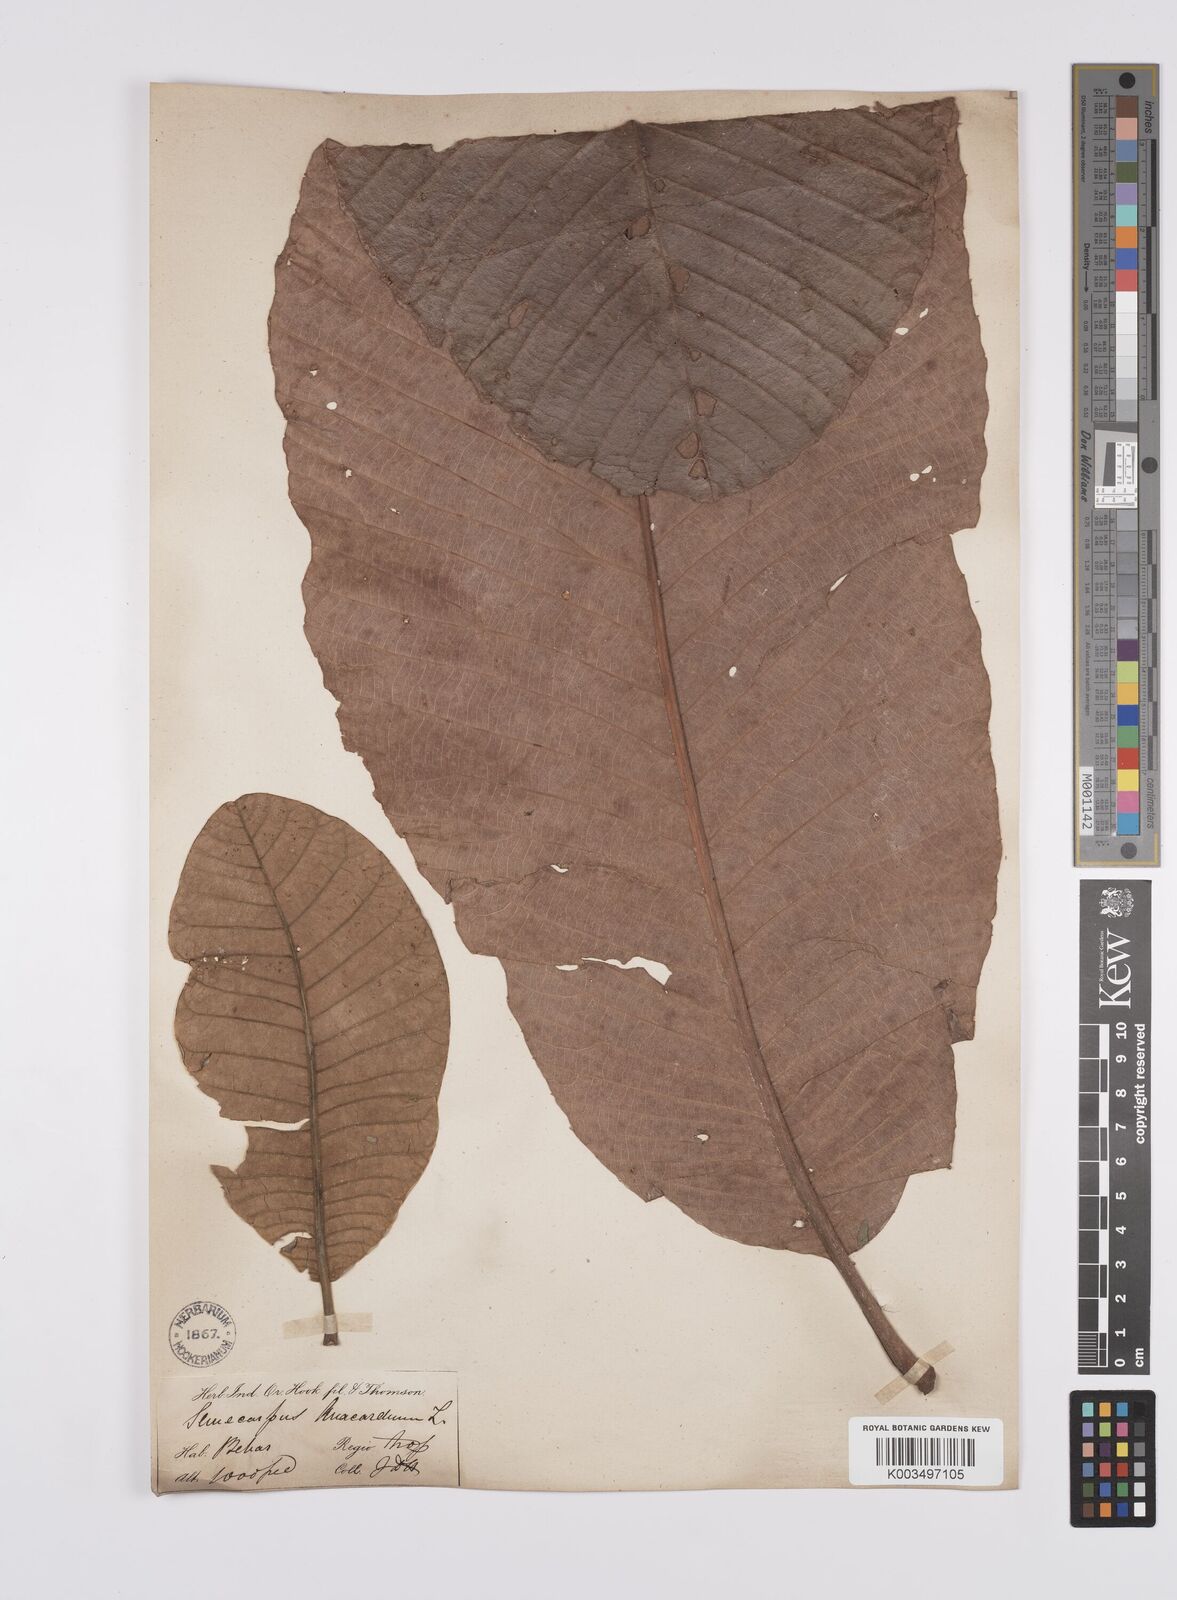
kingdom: Plantae
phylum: Tracheophyta
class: Magnoliopsida
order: Sapindales
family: Anacardiaceae
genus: Semecarpus
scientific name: Semecarpus anacardium
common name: Marking nut-tree
